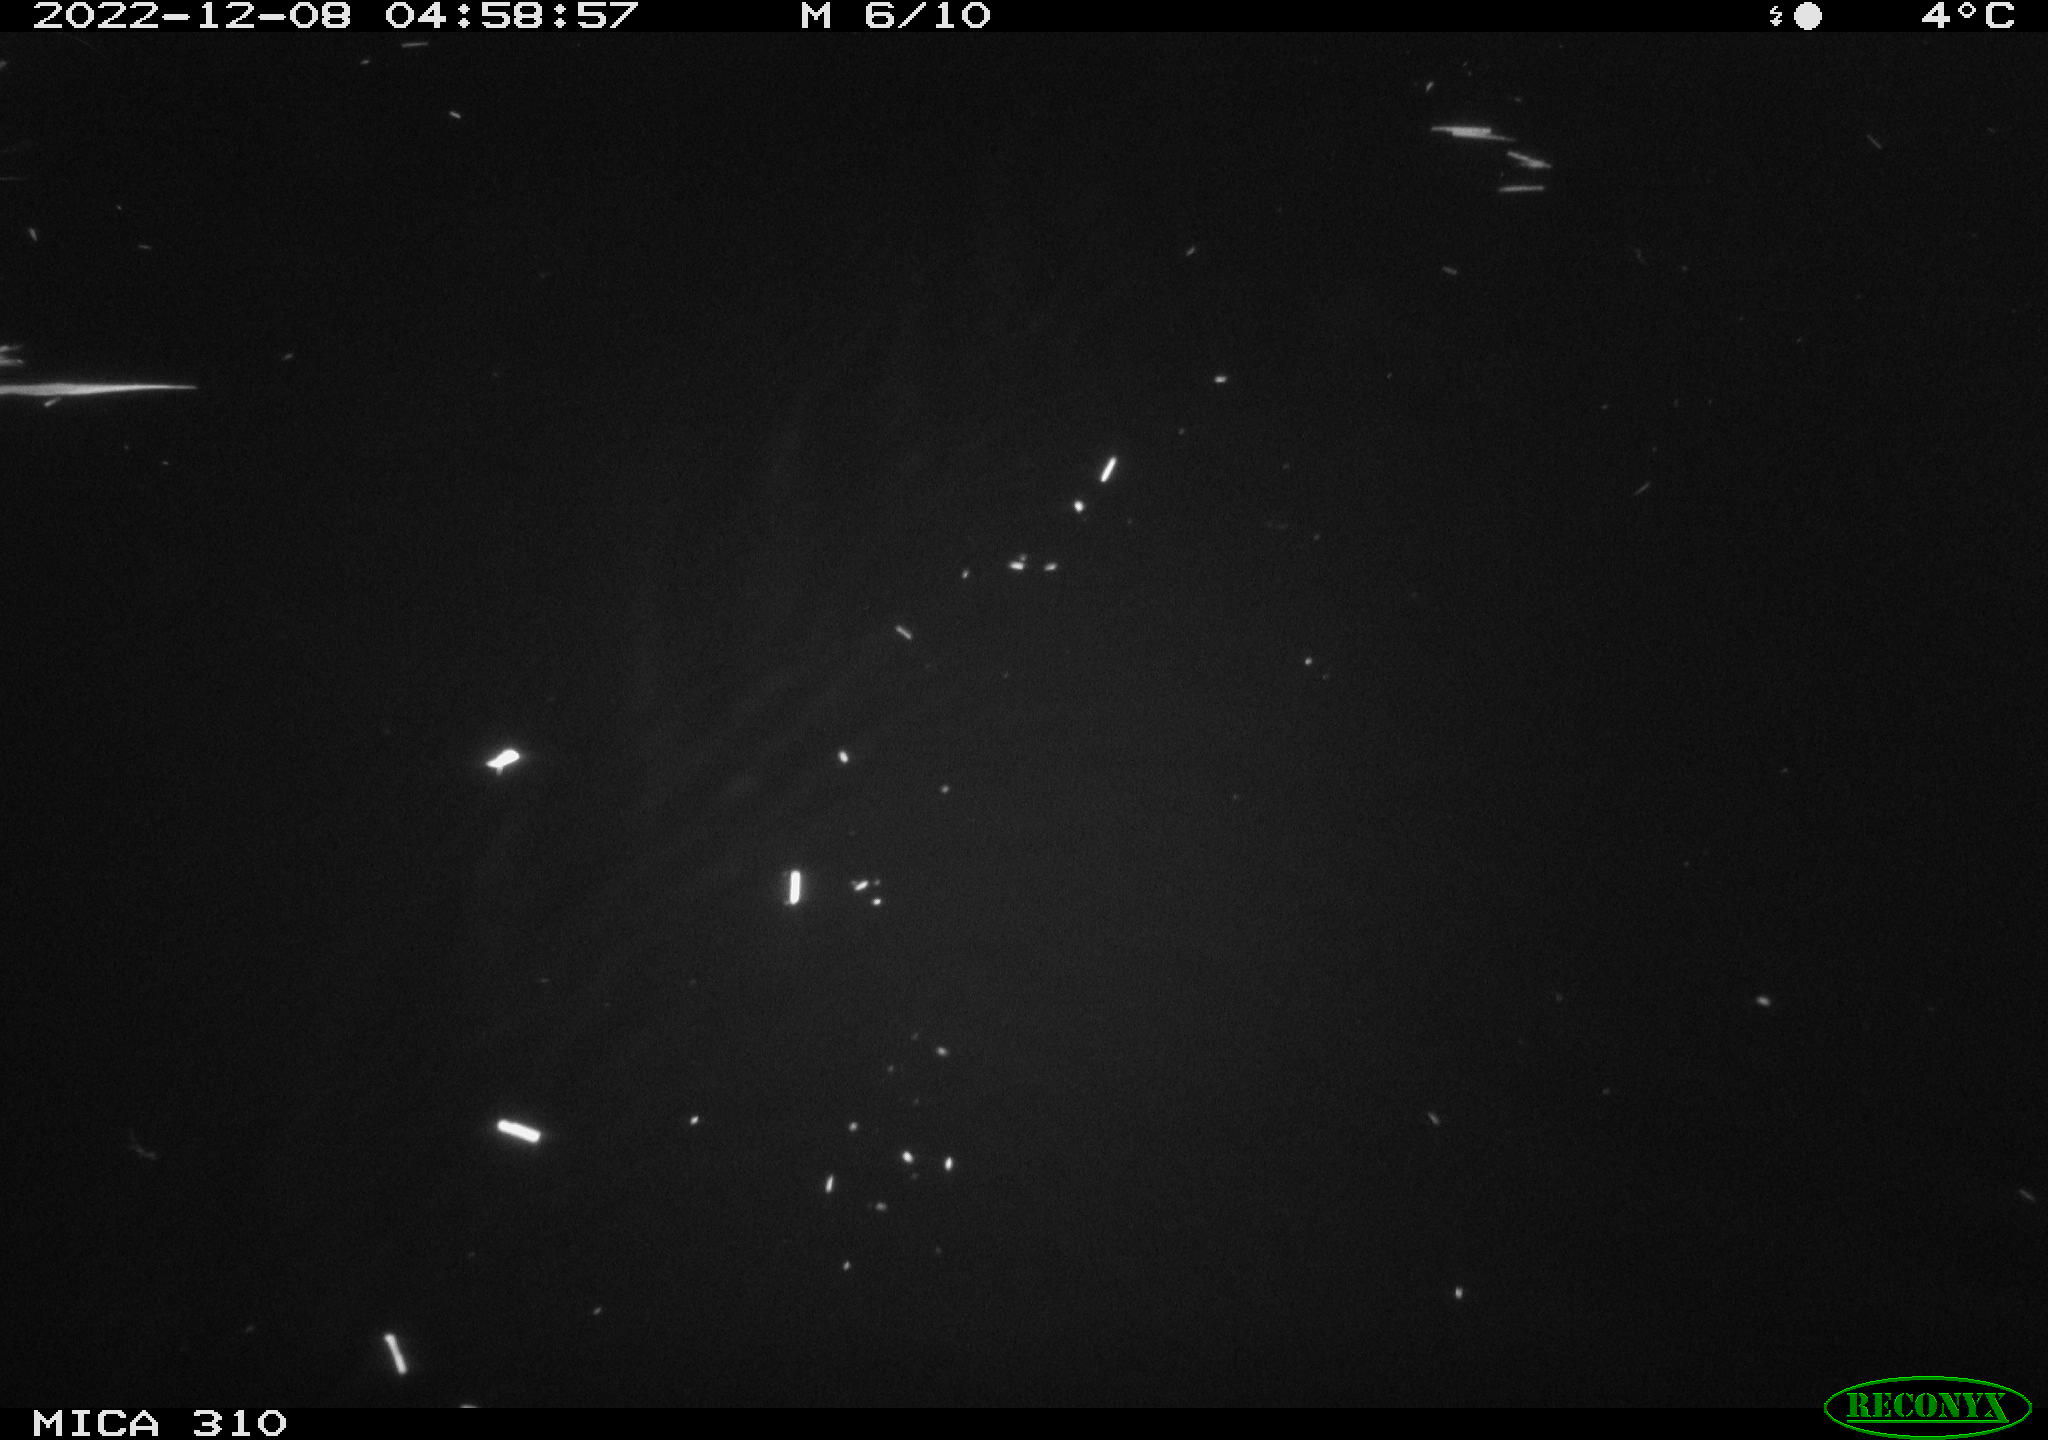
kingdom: Animalia
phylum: Chordata
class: Mammalia
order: Rodentia
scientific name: Rodentia
